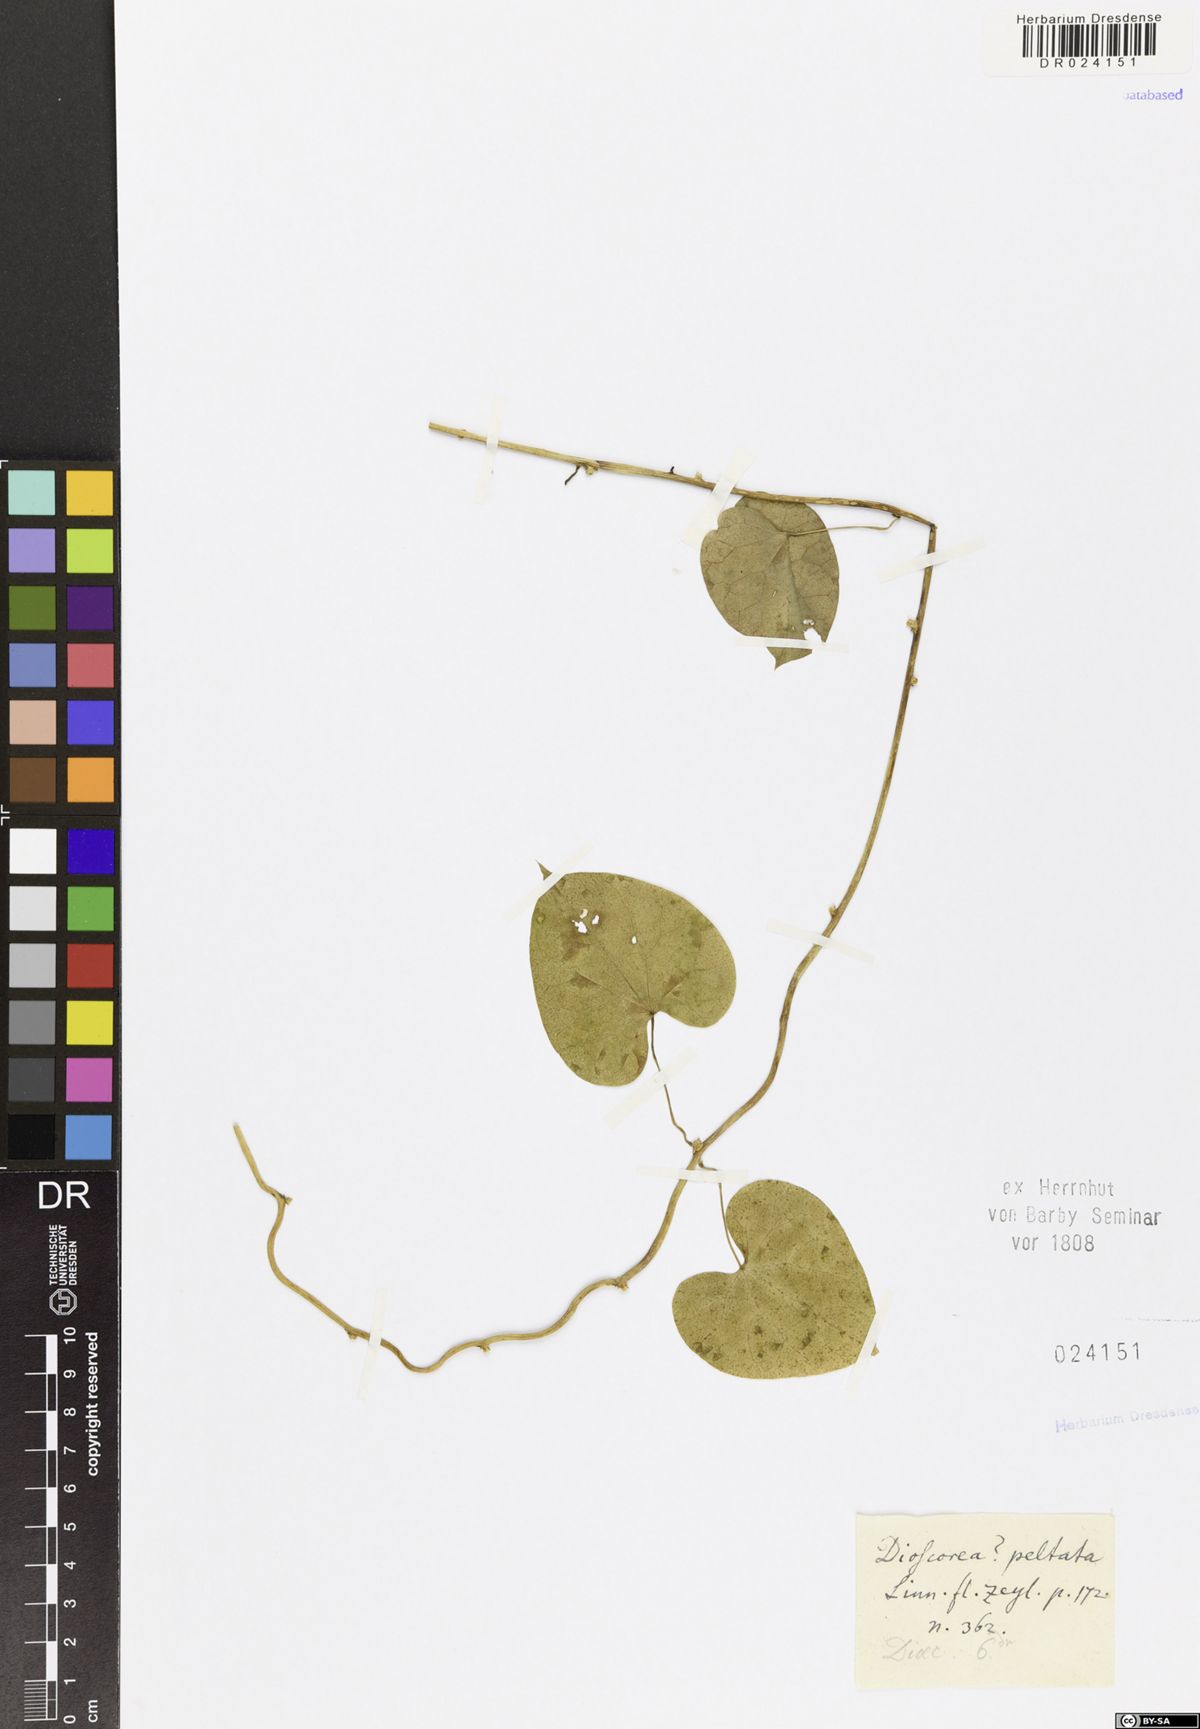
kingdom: Plantae
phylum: Tracheophyta
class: Magnoliopsida
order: Ranunculales
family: Menispermaceae
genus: Cyclea
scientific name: Cyclea peltata
